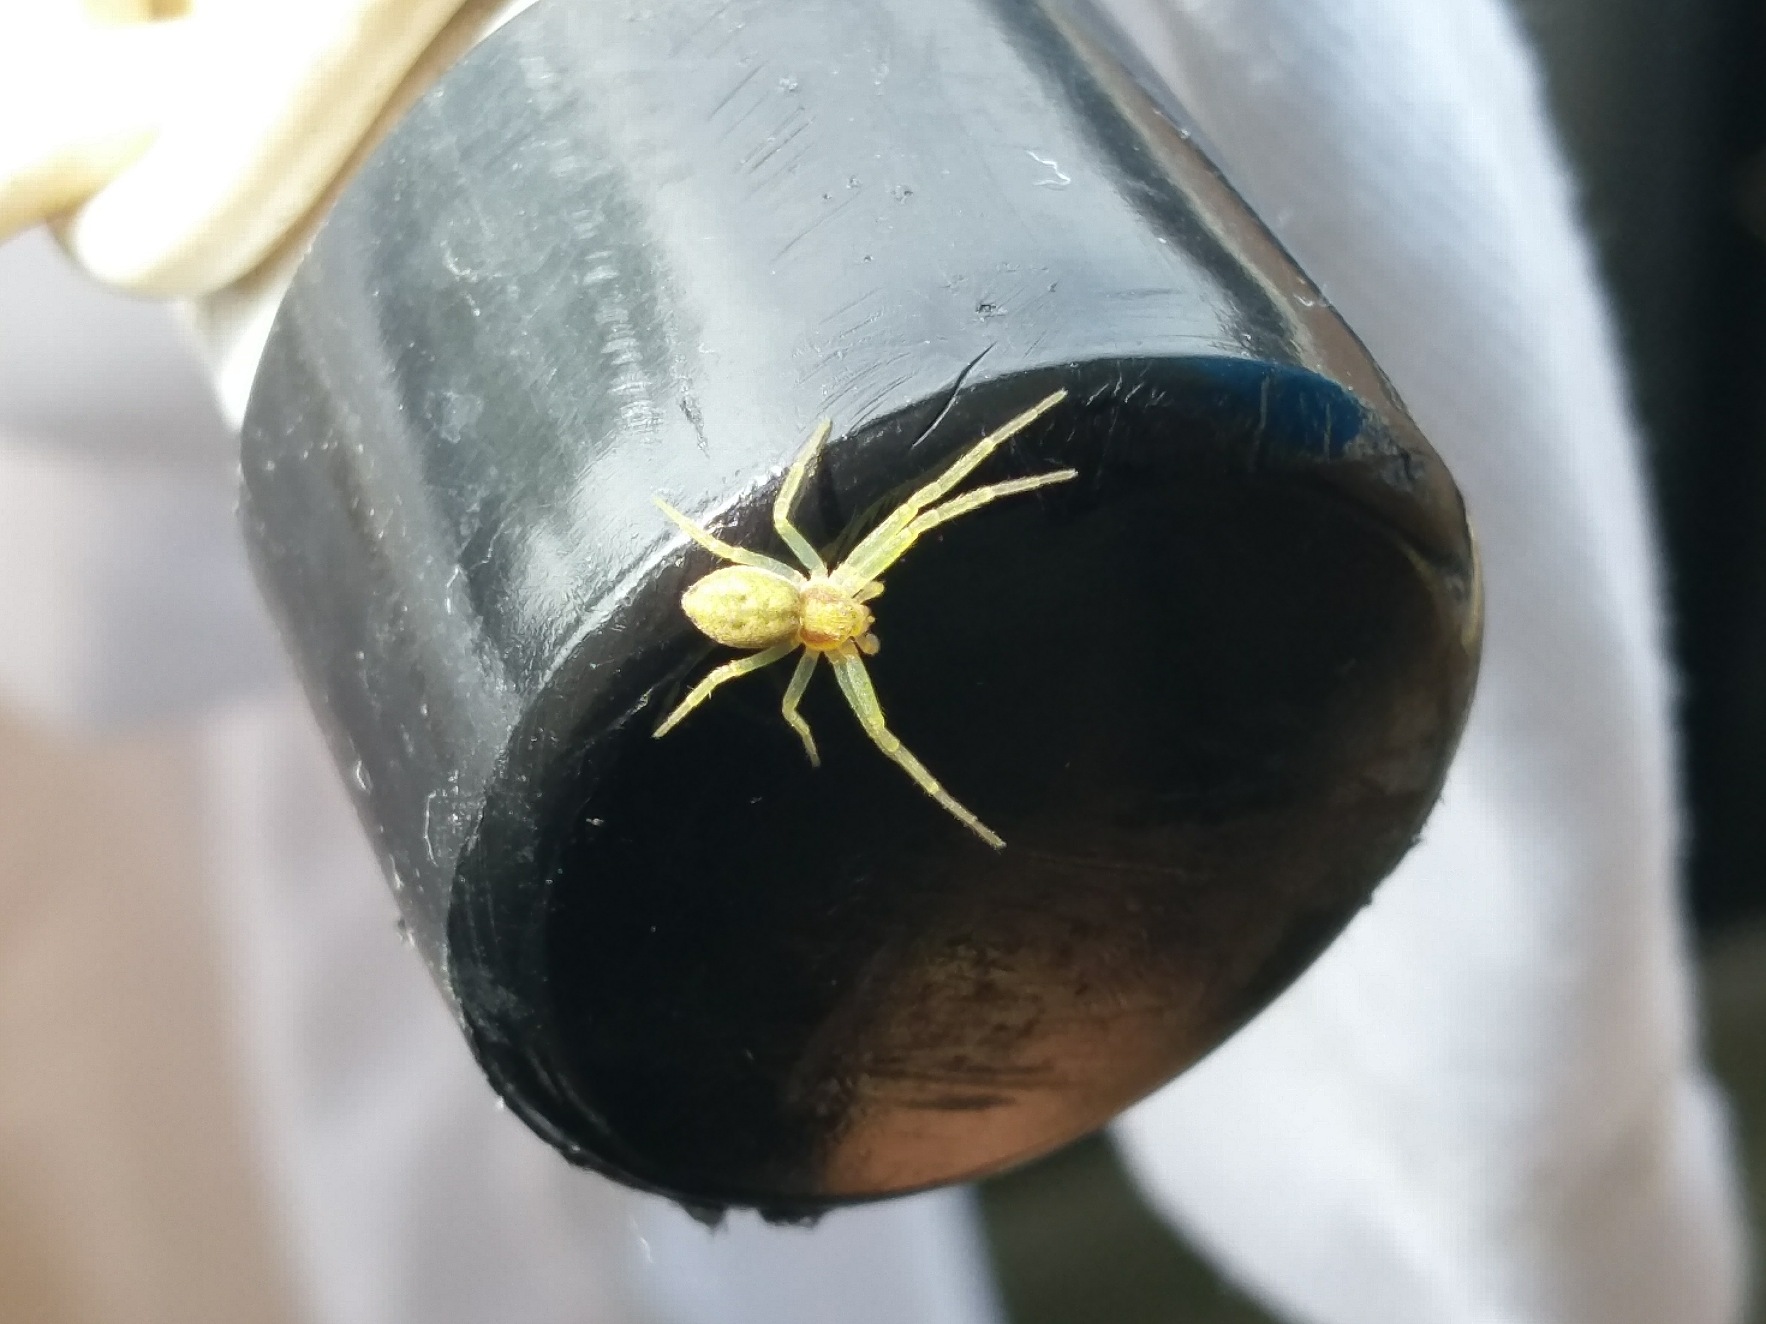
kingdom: Animalia
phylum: Arthropoda
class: Arachnida
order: Araneae
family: Philodromidae
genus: Philodromus
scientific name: Philodromus albidus
